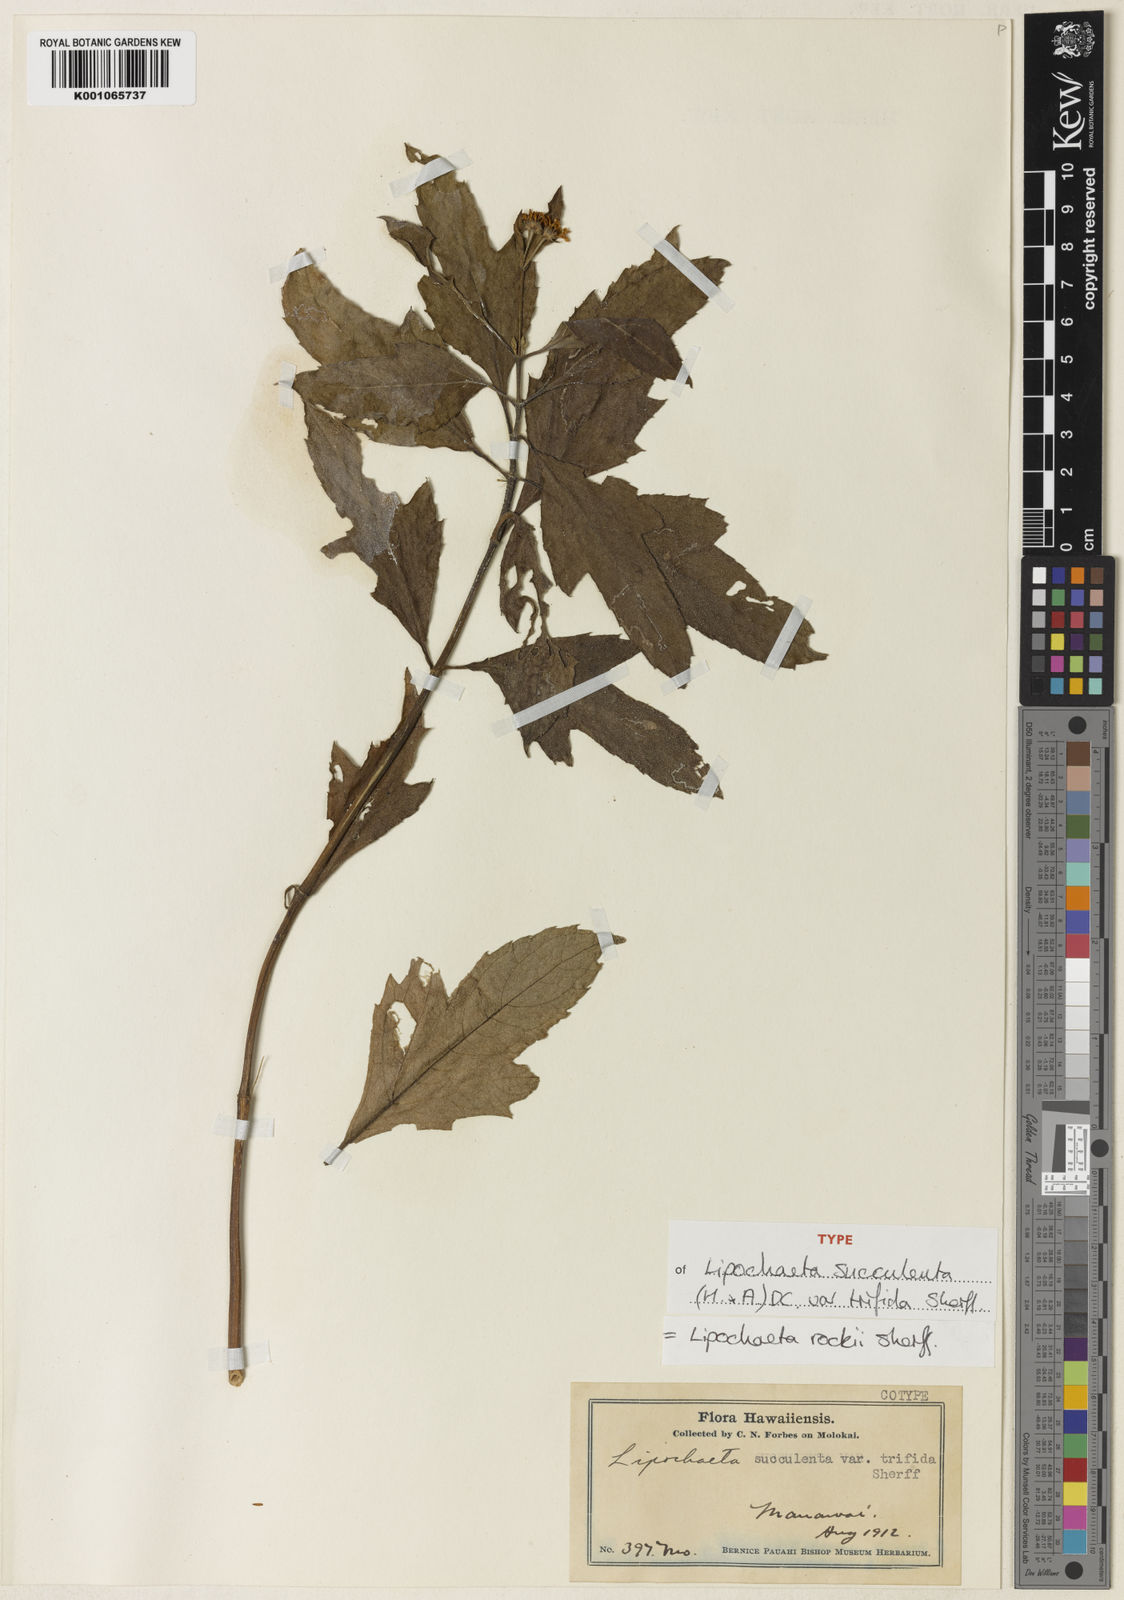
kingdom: Plantae
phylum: Tracheophyta
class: Magnoliopsida
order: Asterales
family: Asteraceae
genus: Lipochaeta
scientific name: Lipochaeta rockii
